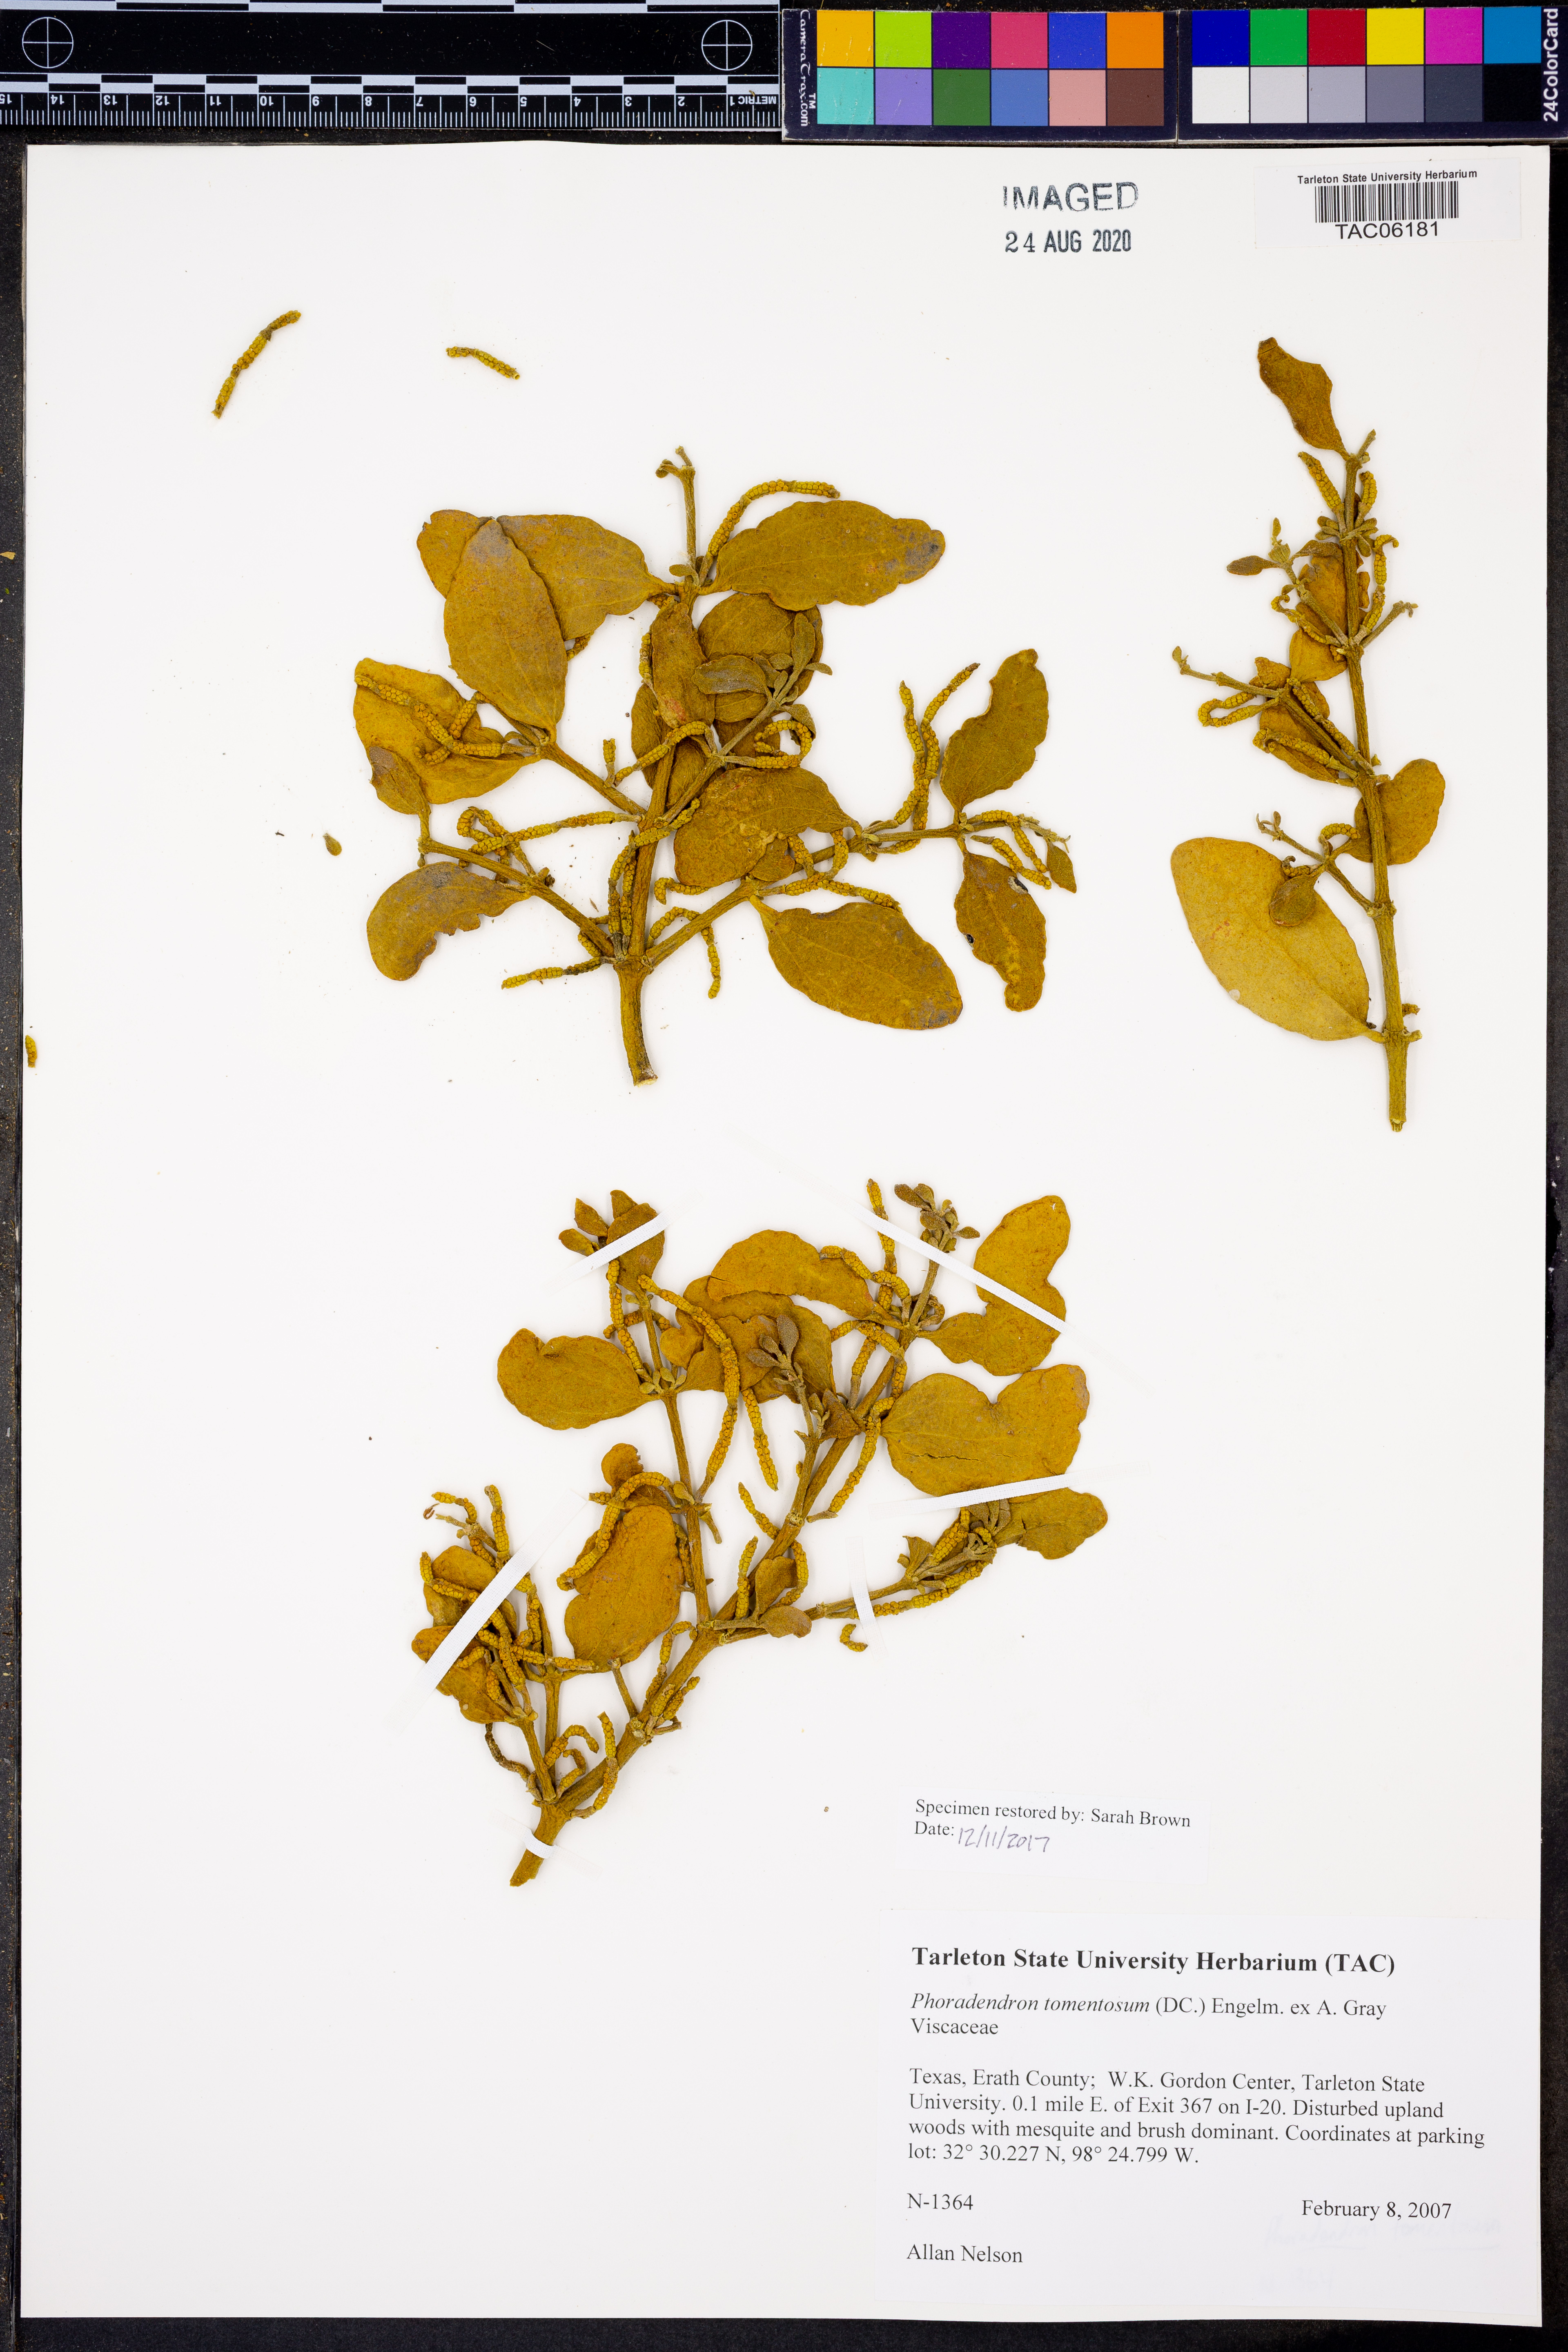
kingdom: Plantae
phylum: Tracheophyta
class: Magnoliopsida
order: Santalales
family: Viscaceae
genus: Phoradendron
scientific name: Phoradendron leucarpum
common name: Pacific mistletoe
